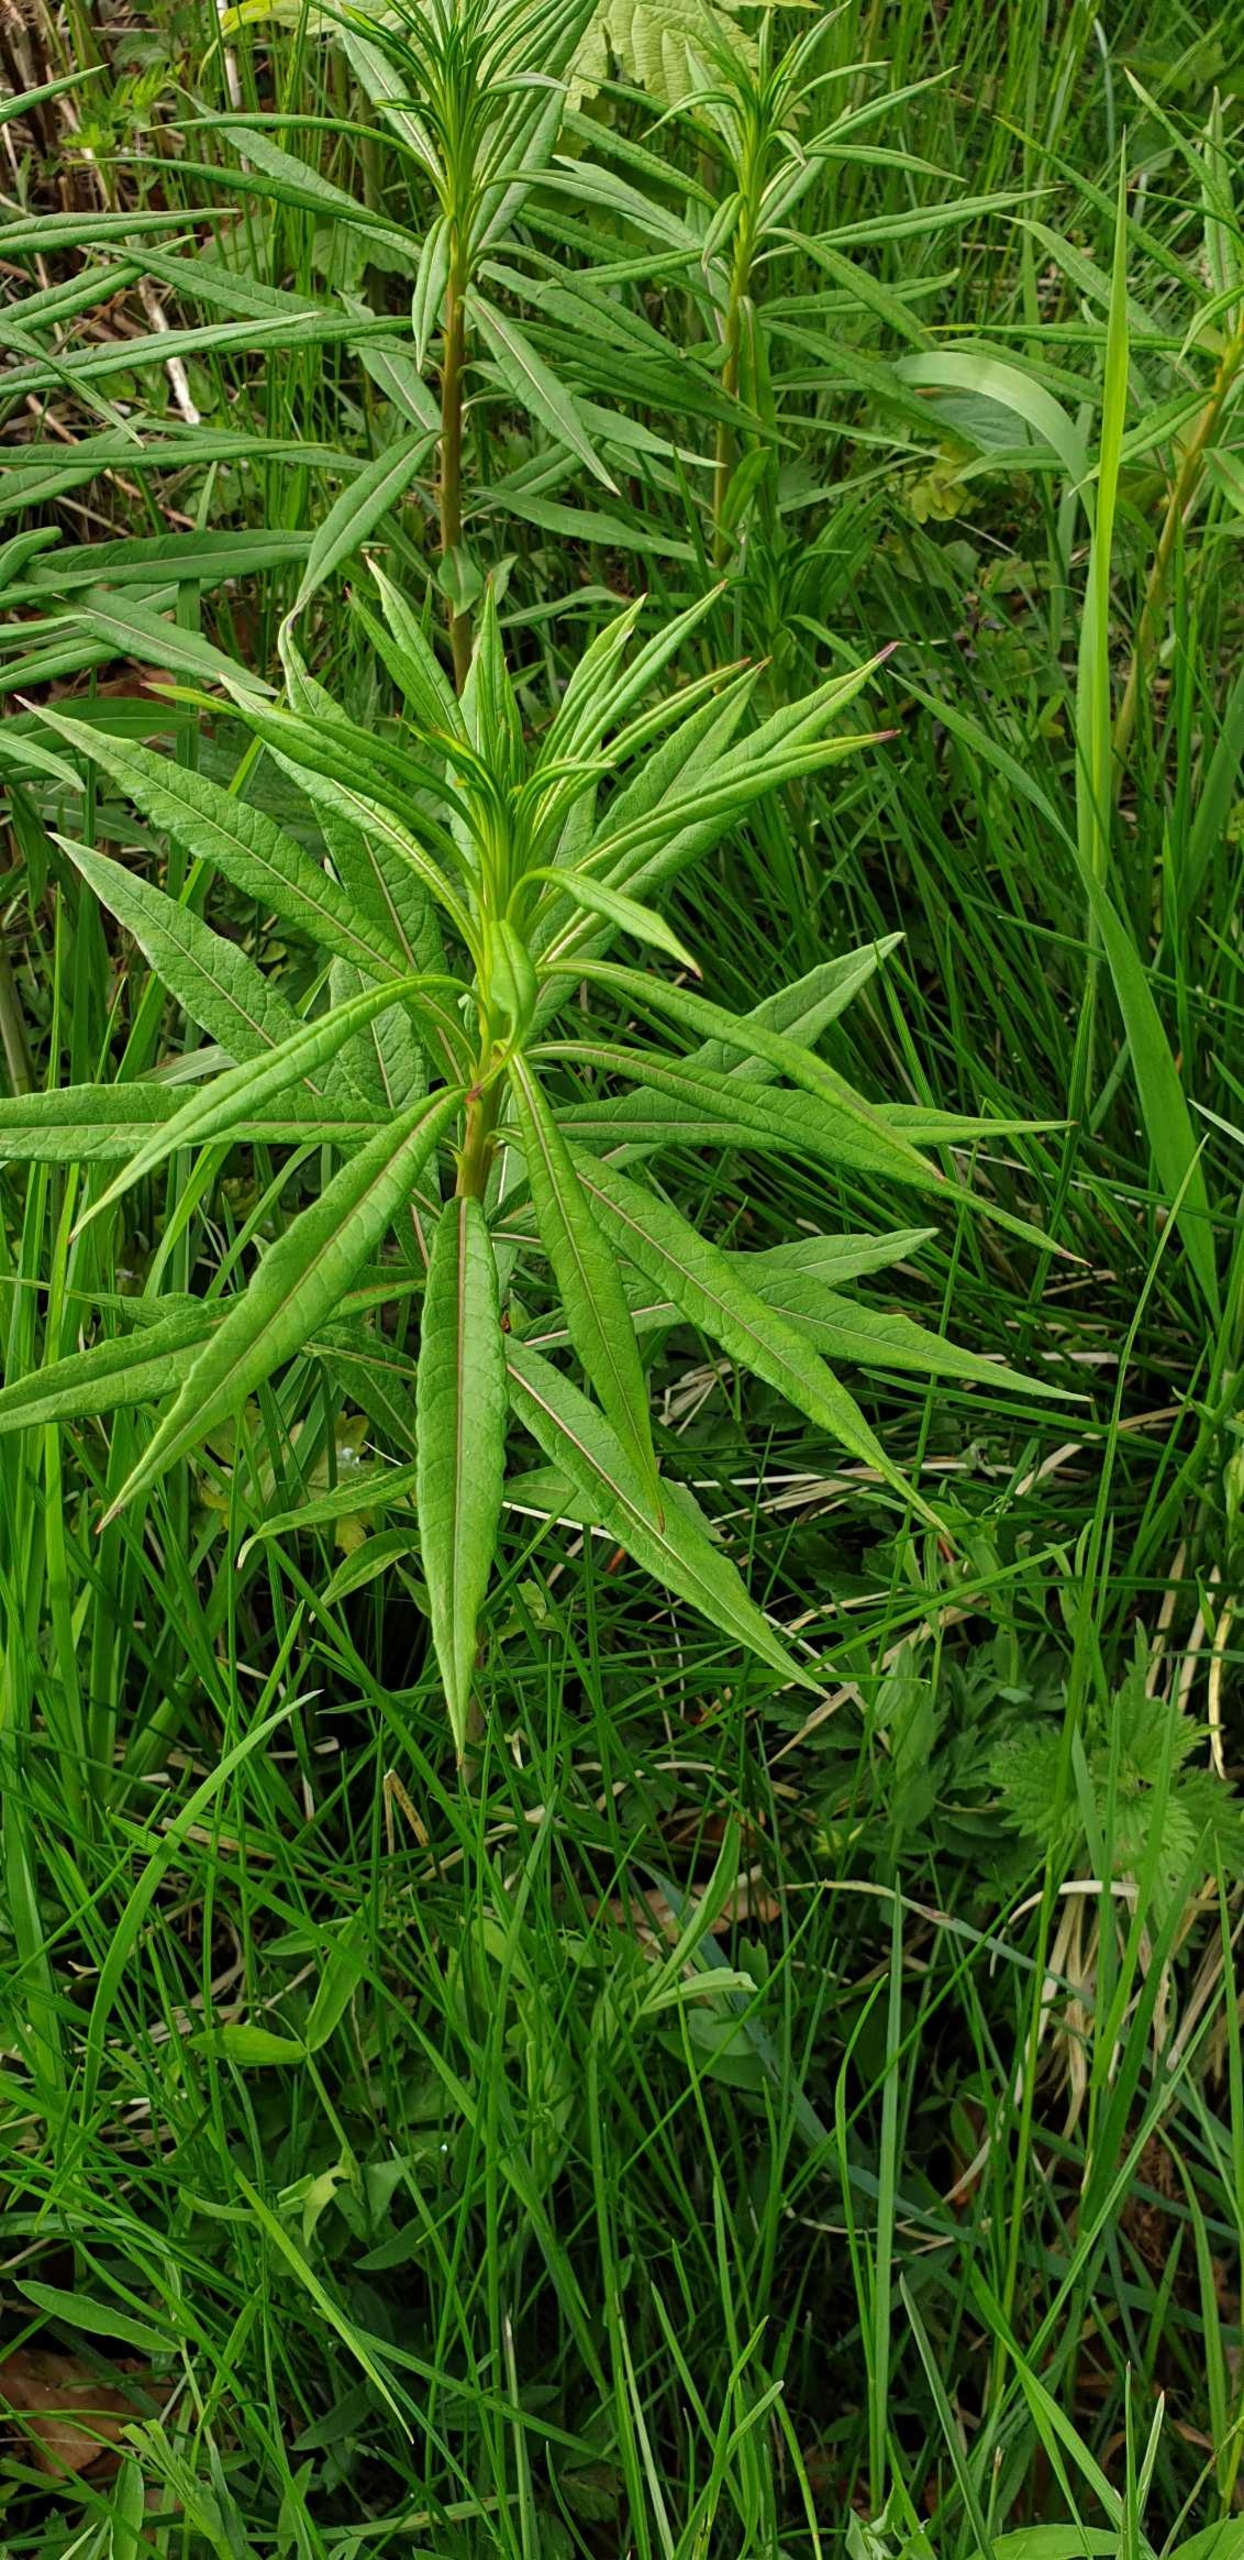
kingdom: Plantae
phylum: Tracheophyta
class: Magnoliopsida
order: Myrtales
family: Onagraceae
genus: Chamaenerion
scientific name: Chamaenerion
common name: Gederamsslægten
